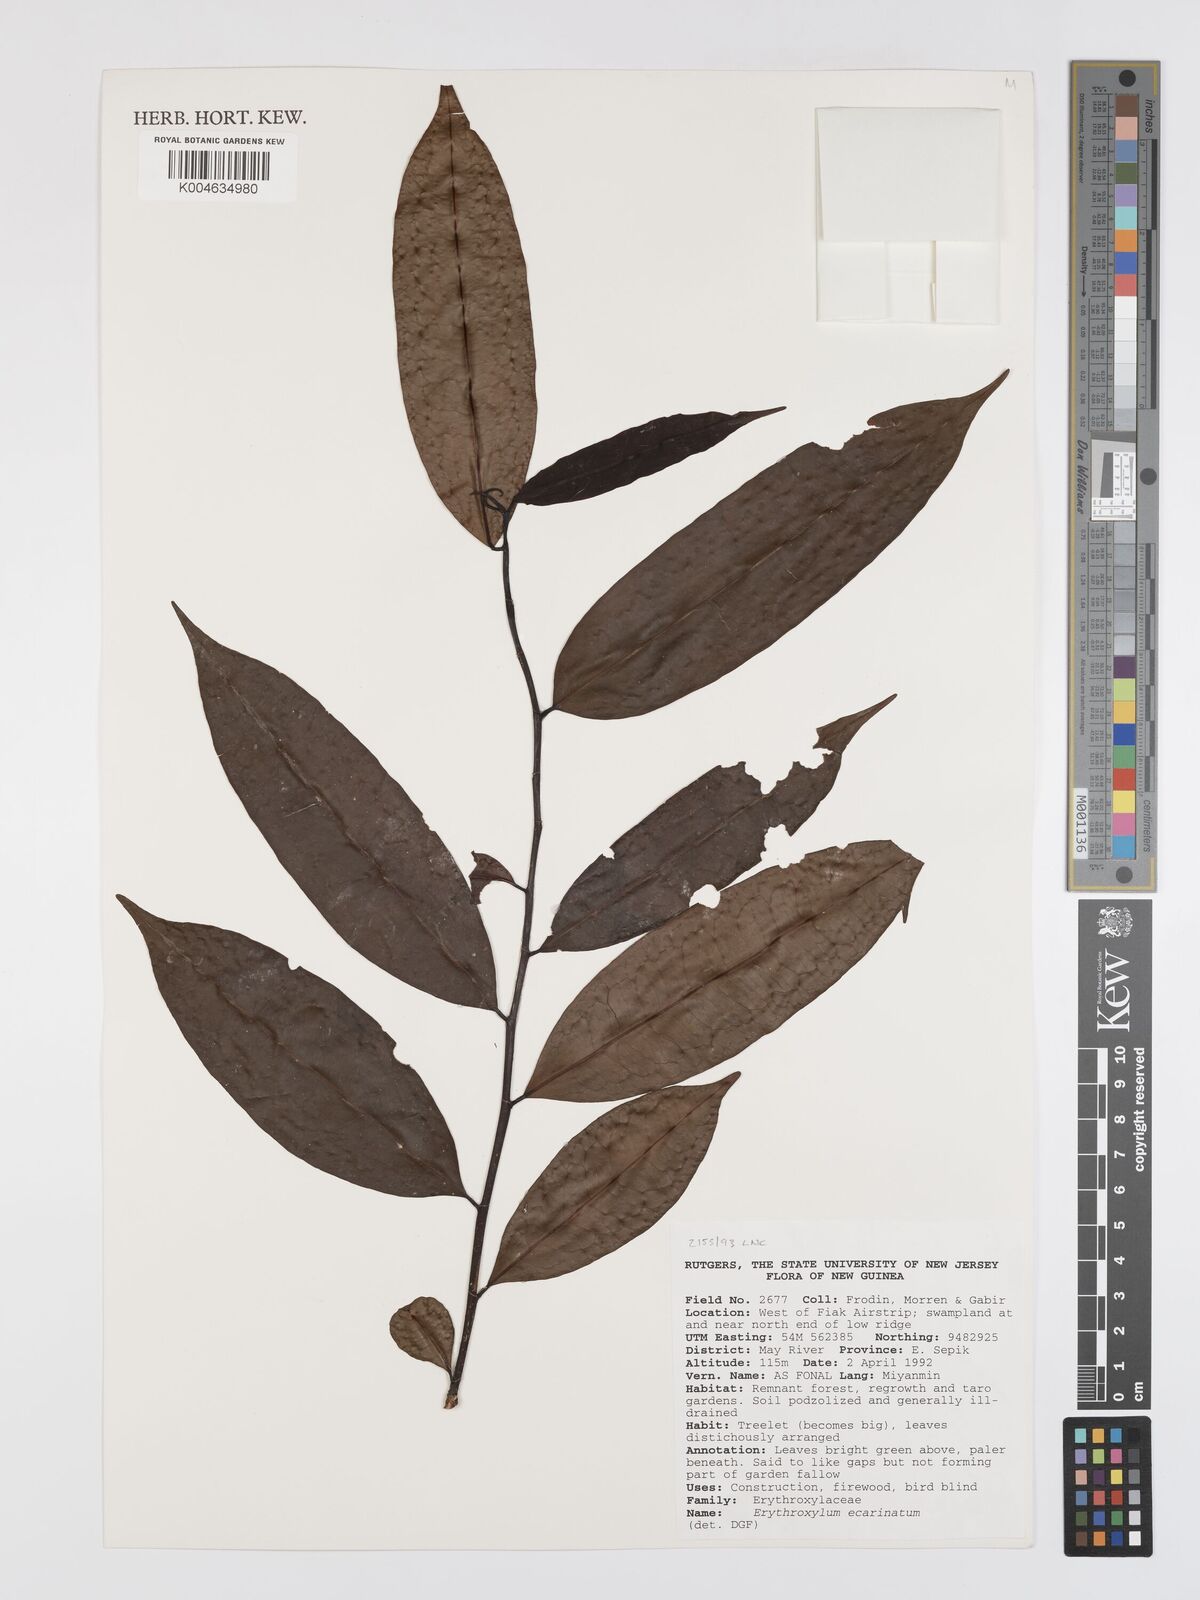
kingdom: Plantae
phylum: Tracheophyta
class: Magnoliopsida
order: Malpighiales
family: Erythroxylaceae
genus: Erythroxylum
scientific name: Erythroxylum ecarinatum
